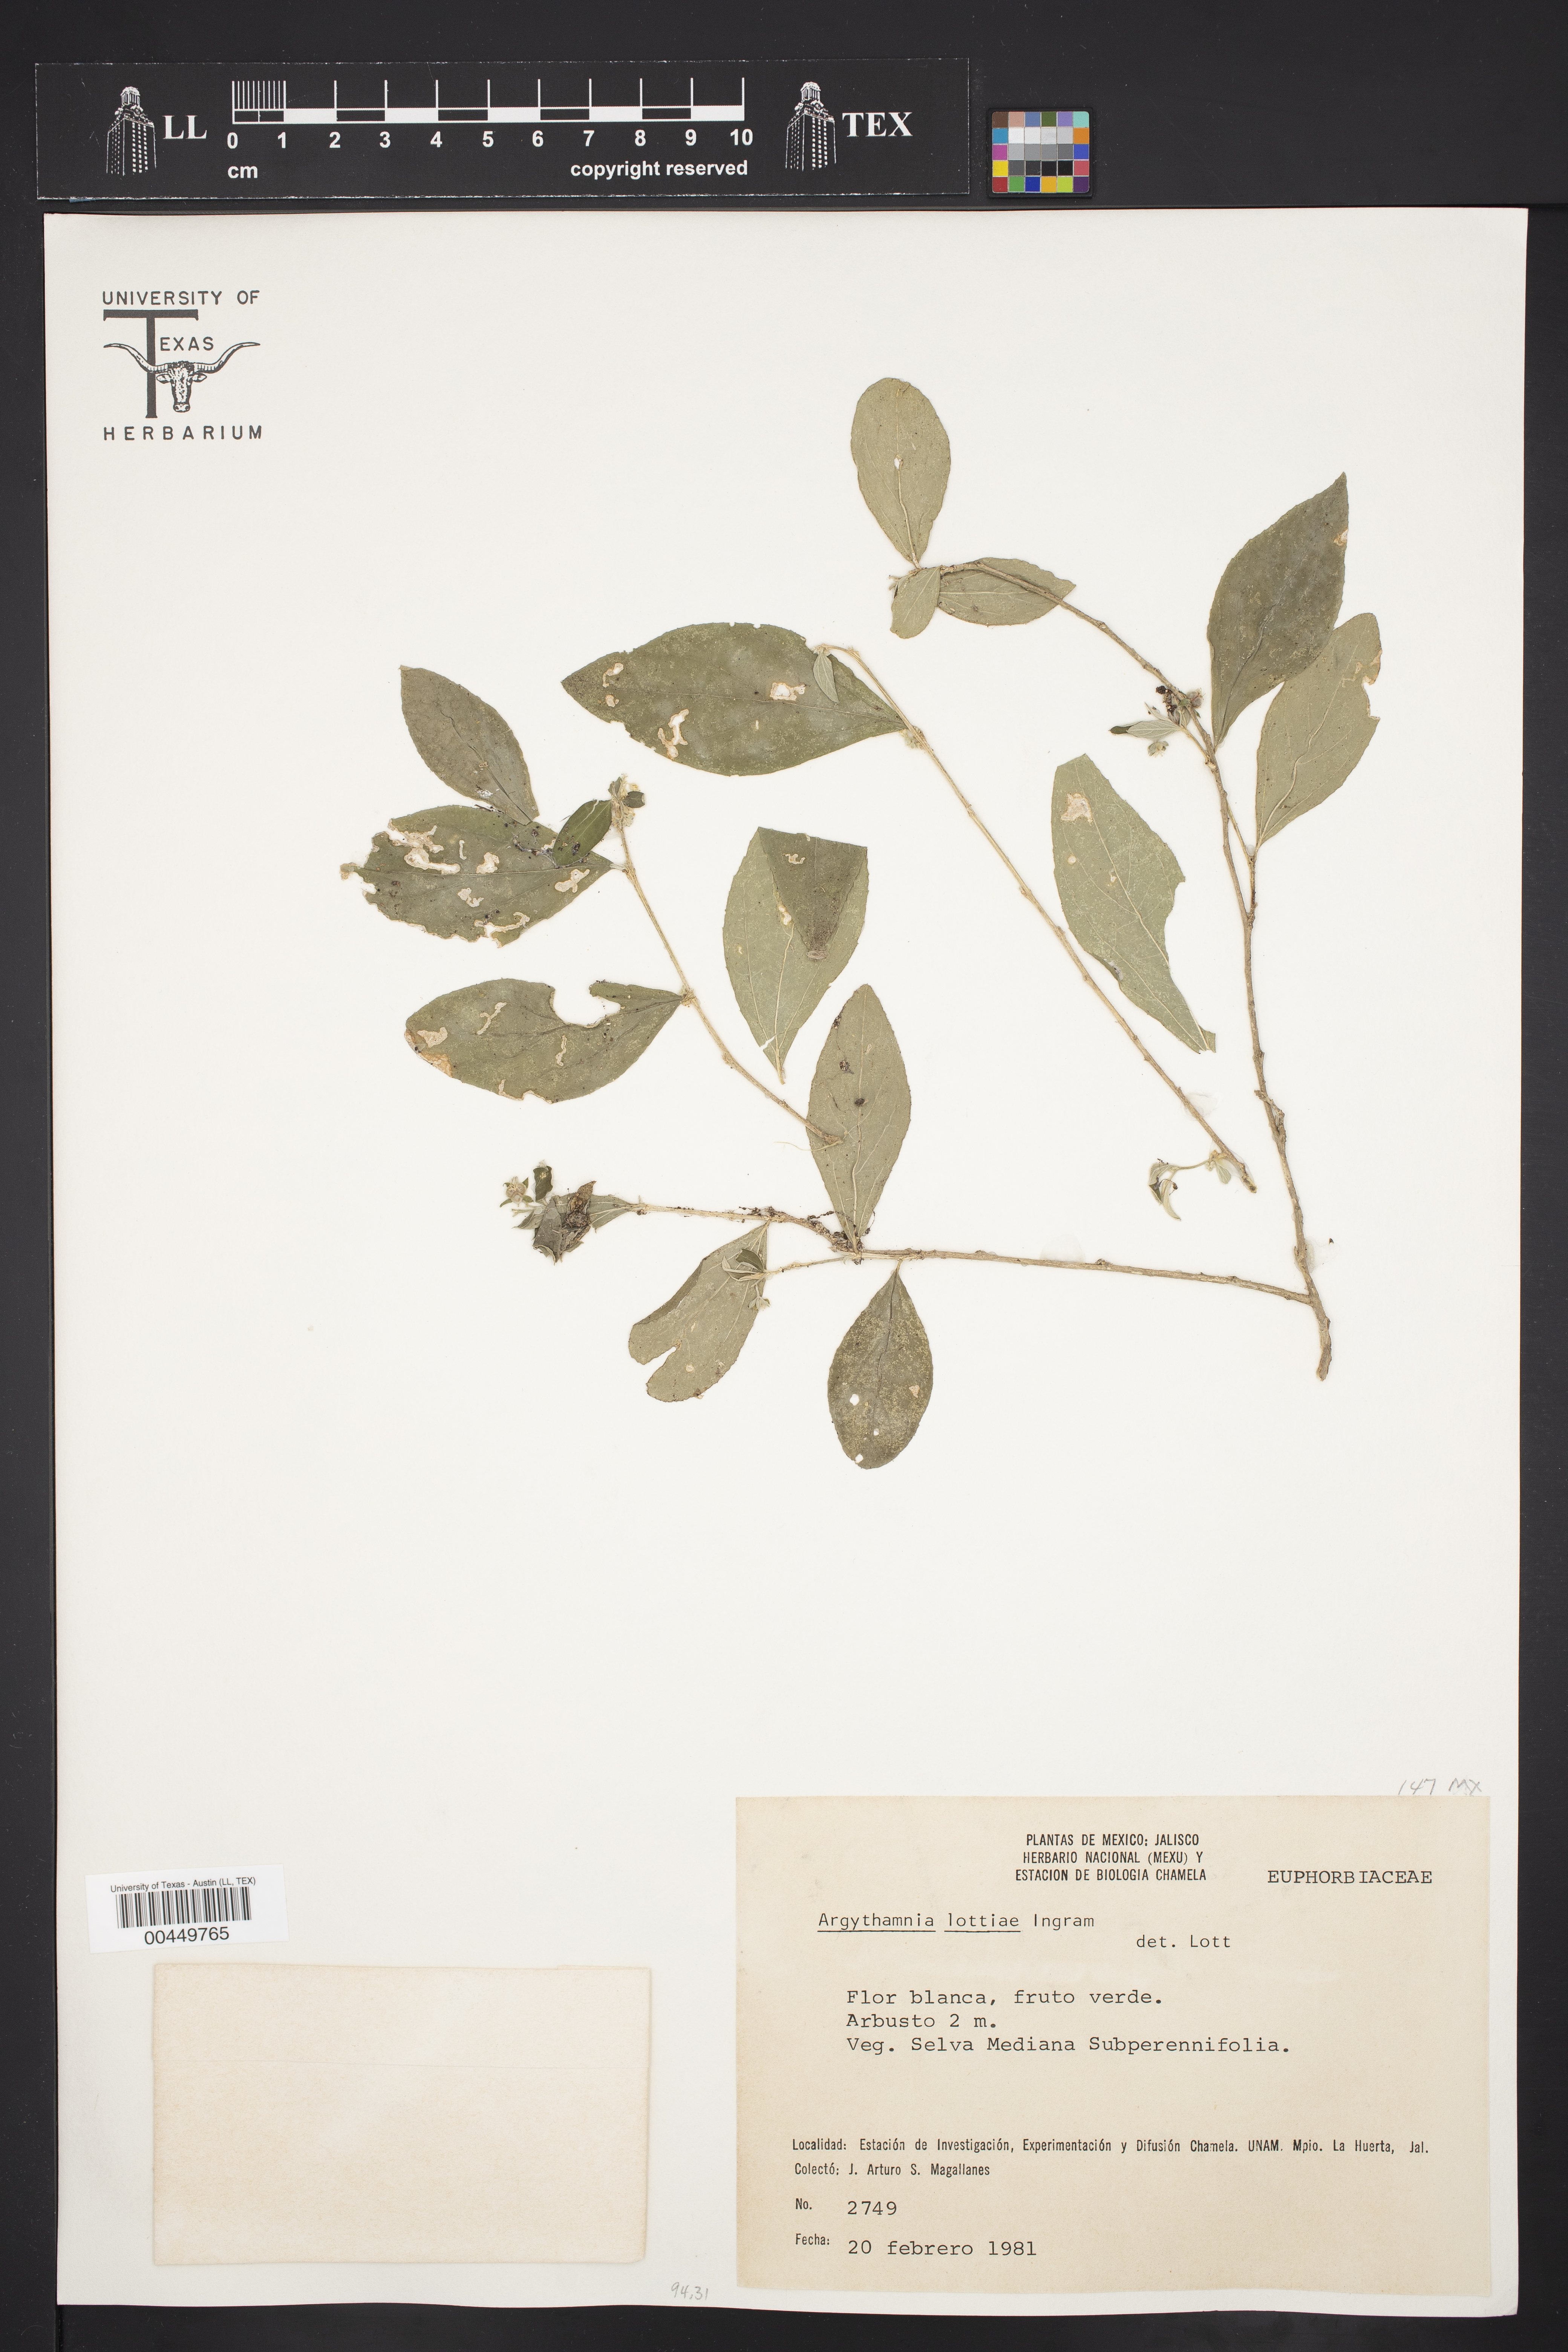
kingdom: Plantae
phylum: Tracheophyta
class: Magnoliopsida
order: Malpighiales
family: Euphorbiaceae
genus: Argythamnia
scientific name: Argythamnia lottiae
